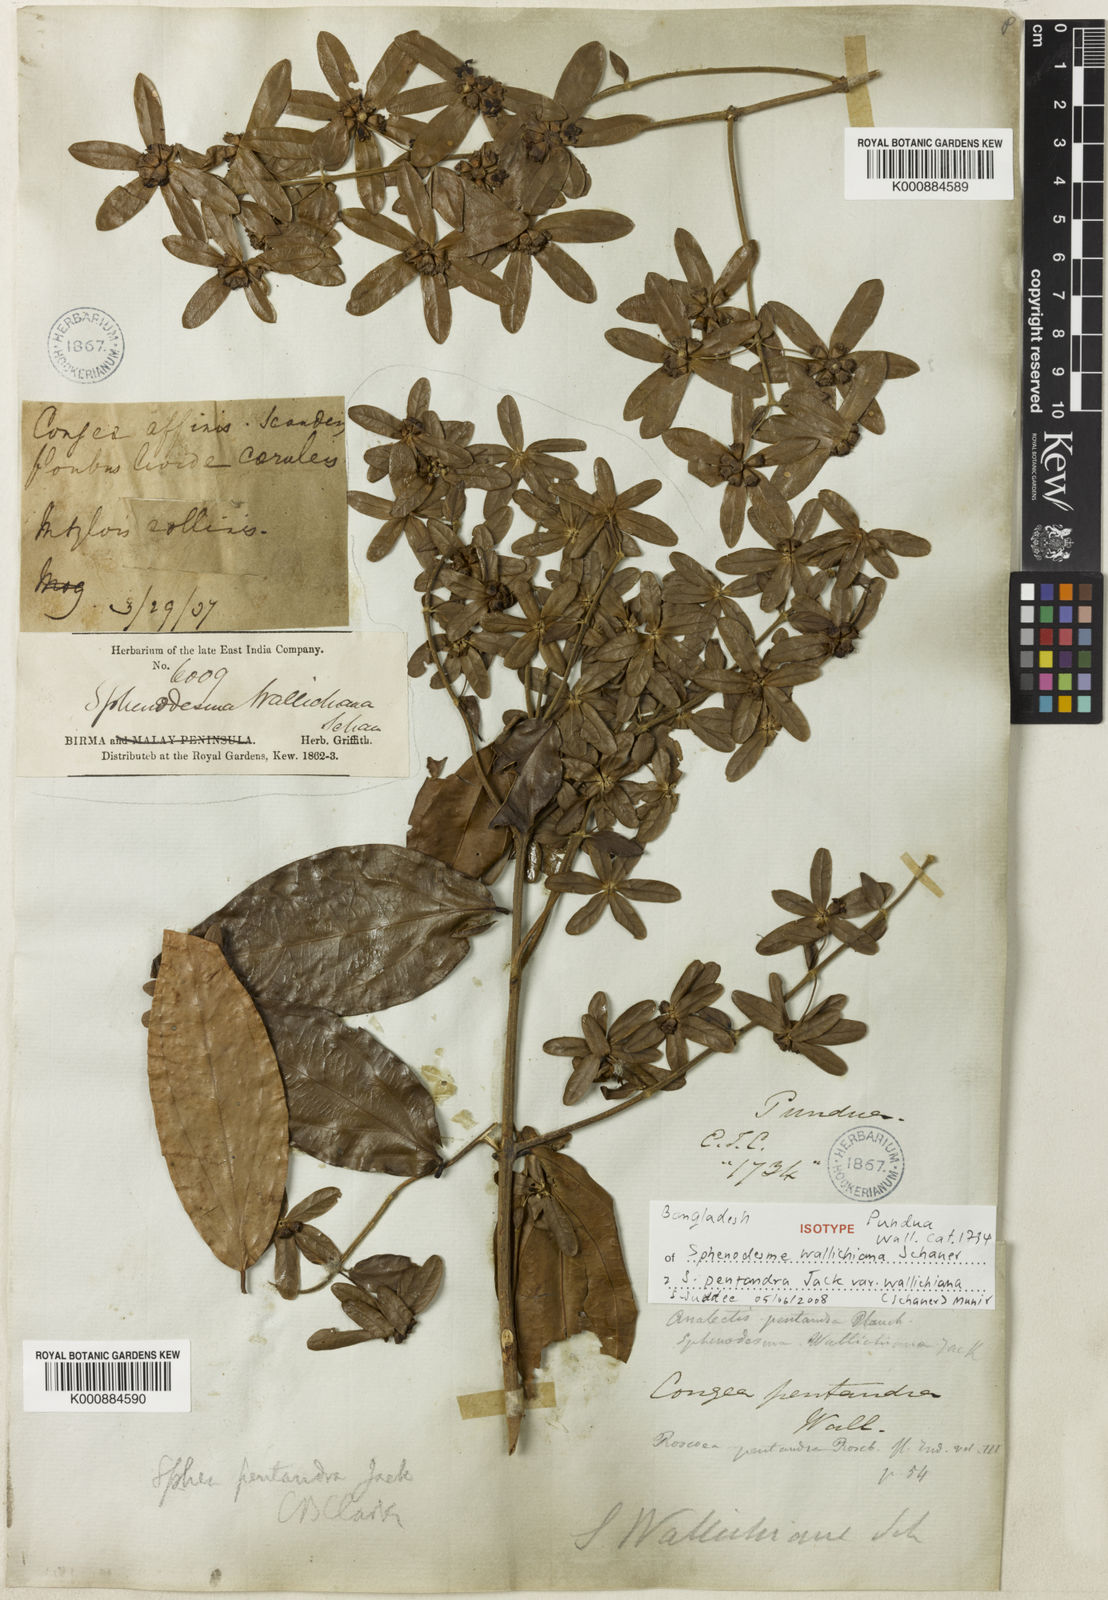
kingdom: Plantae
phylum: Tracheophyta
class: Magnoliopsida
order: Lamiales
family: Lamiaceae
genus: Sphenodesme
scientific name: Sphenodesme pentandra
